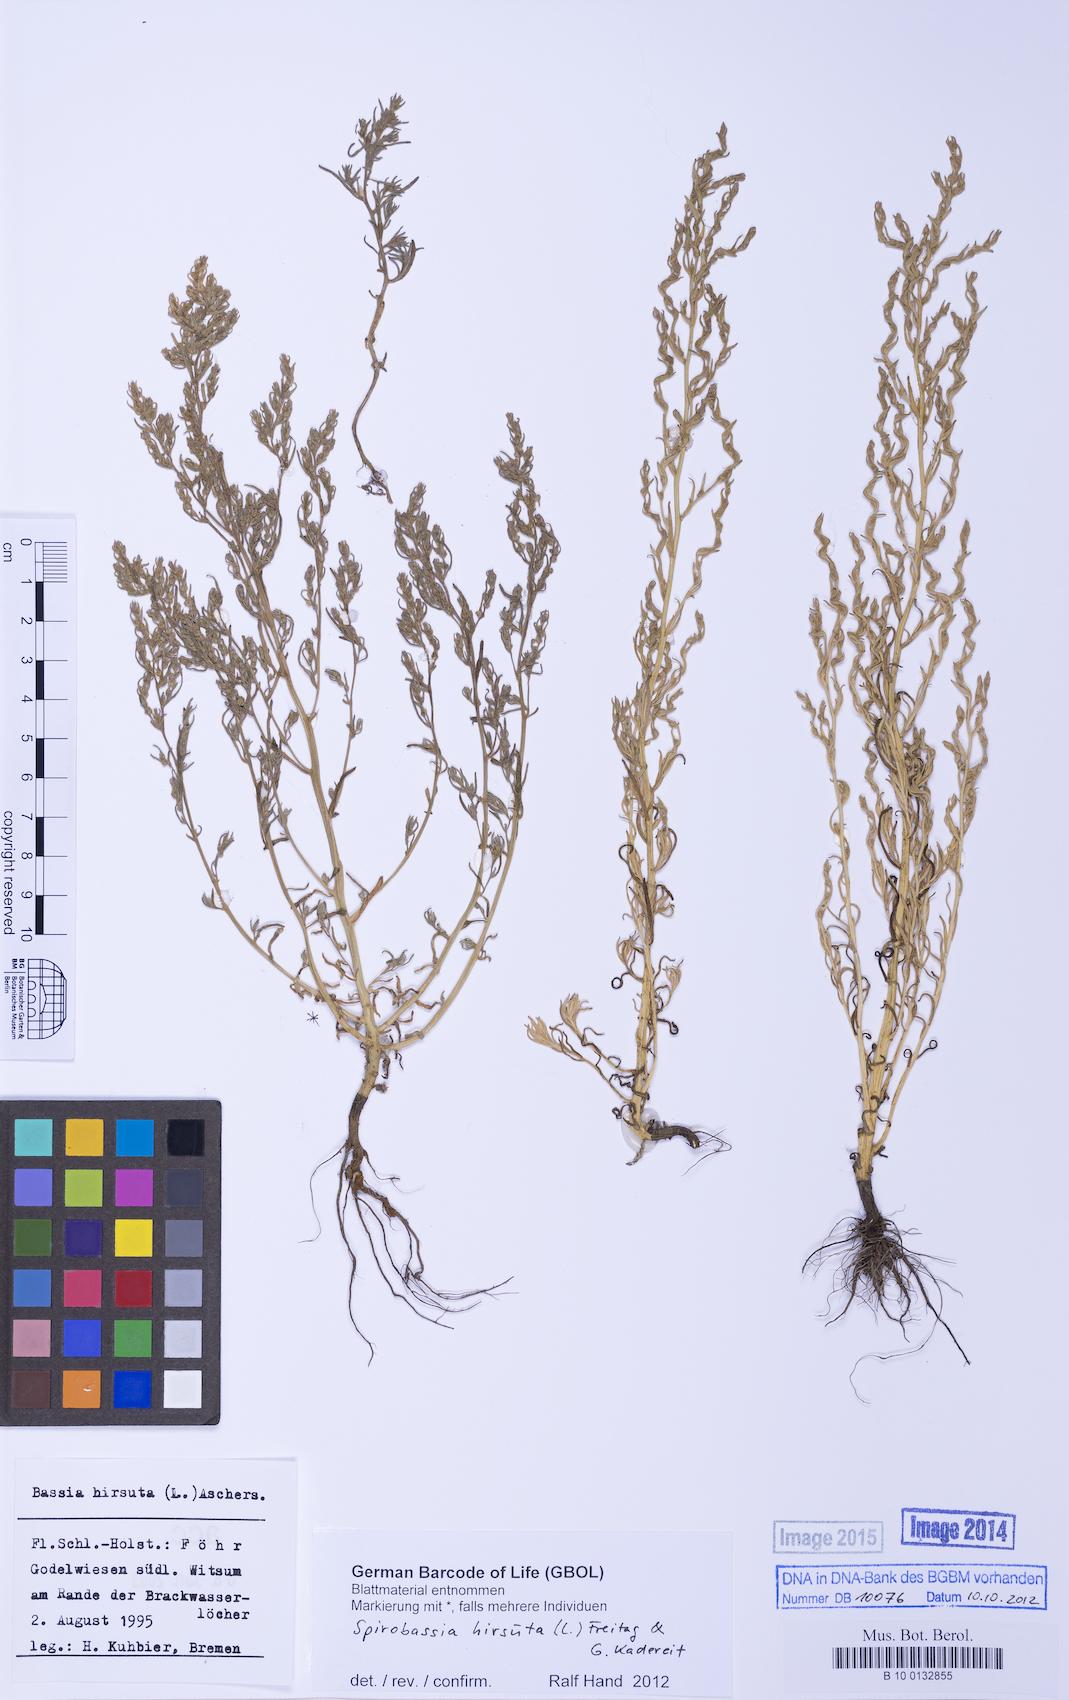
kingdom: Plantae
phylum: Tracheophyta
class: Magnoliopsida
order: Caryophyllales
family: Amaranthaceae
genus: Spirobassia
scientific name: Spirobassia hirsuta
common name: Hairy smotherweed
